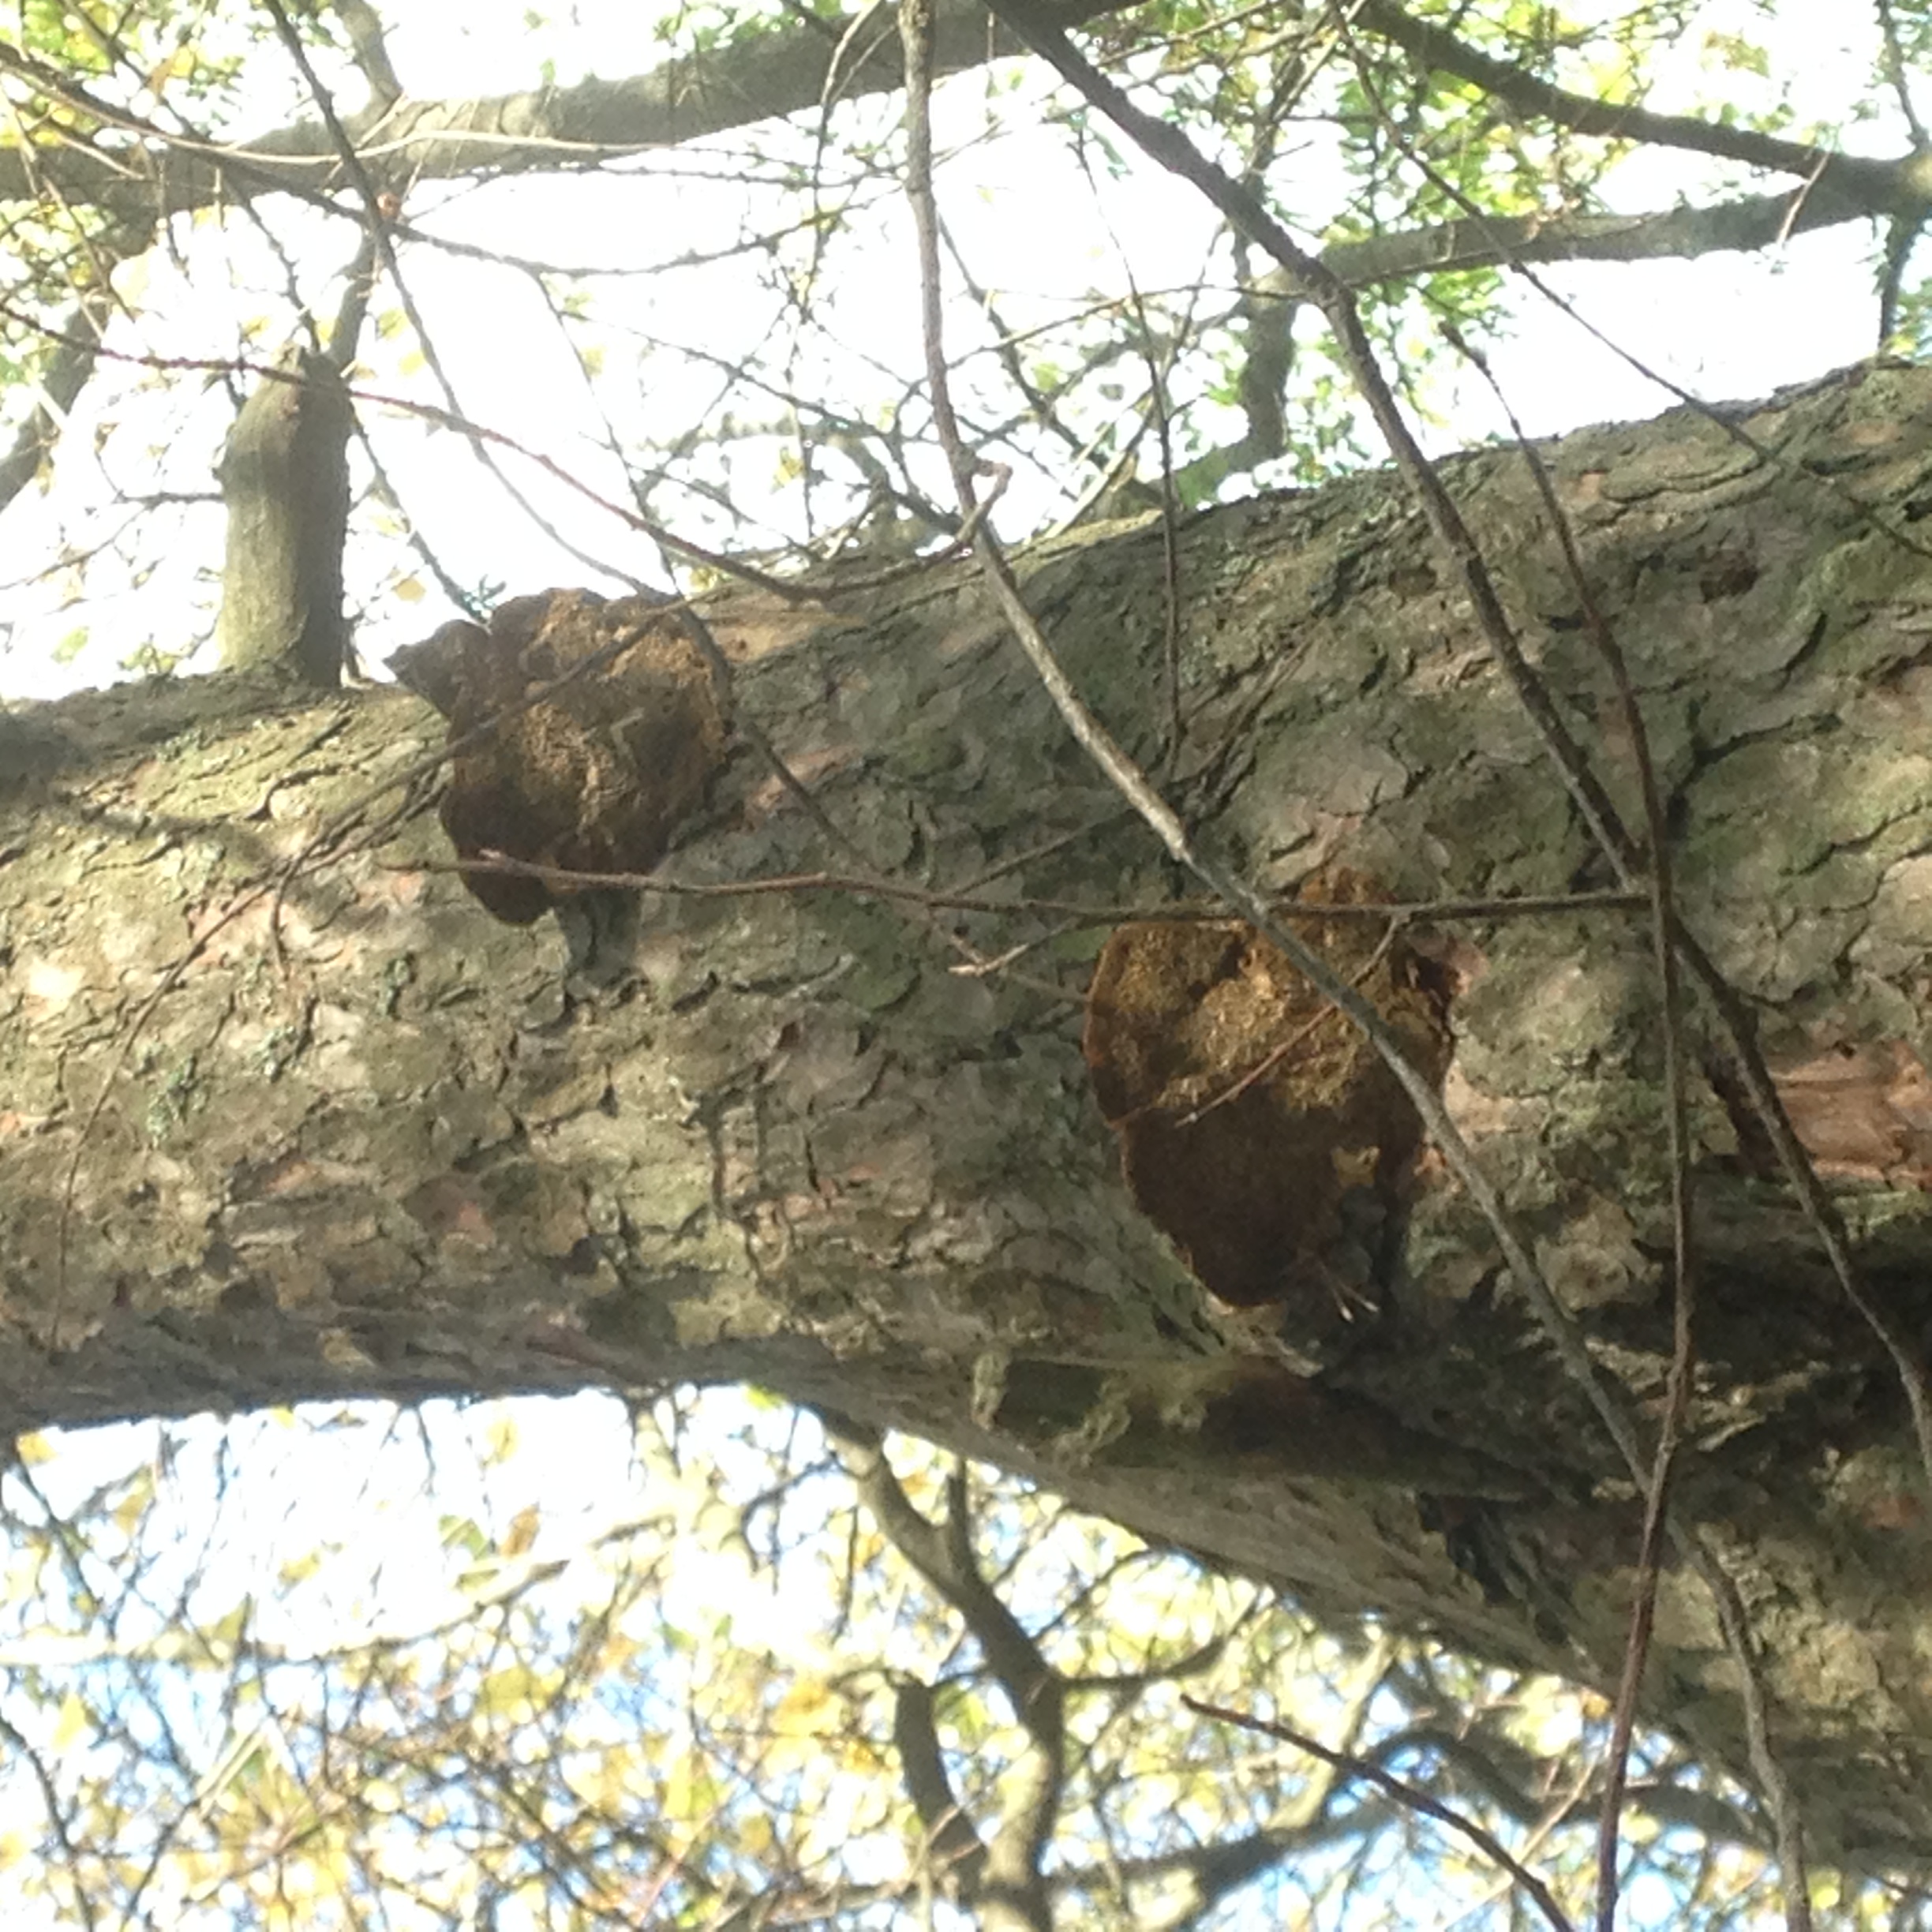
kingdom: Fungi
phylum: Basidiomycota
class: Agaricomycetes
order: Hymenochaetales
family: Hymenochaetaceae
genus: Porodaedalea
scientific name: Porodaedalea pini
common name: Pine bracket
